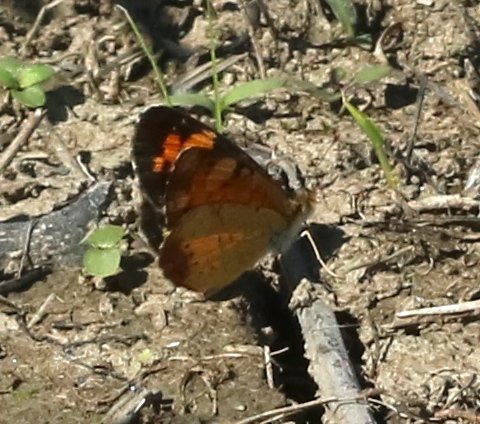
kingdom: Animalia
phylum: Arthropoda
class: Insecta
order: Lepidoptera
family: Nymphalidae
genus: Phyciodes
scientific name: Phyciodes tharos
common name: Northern Crescent
